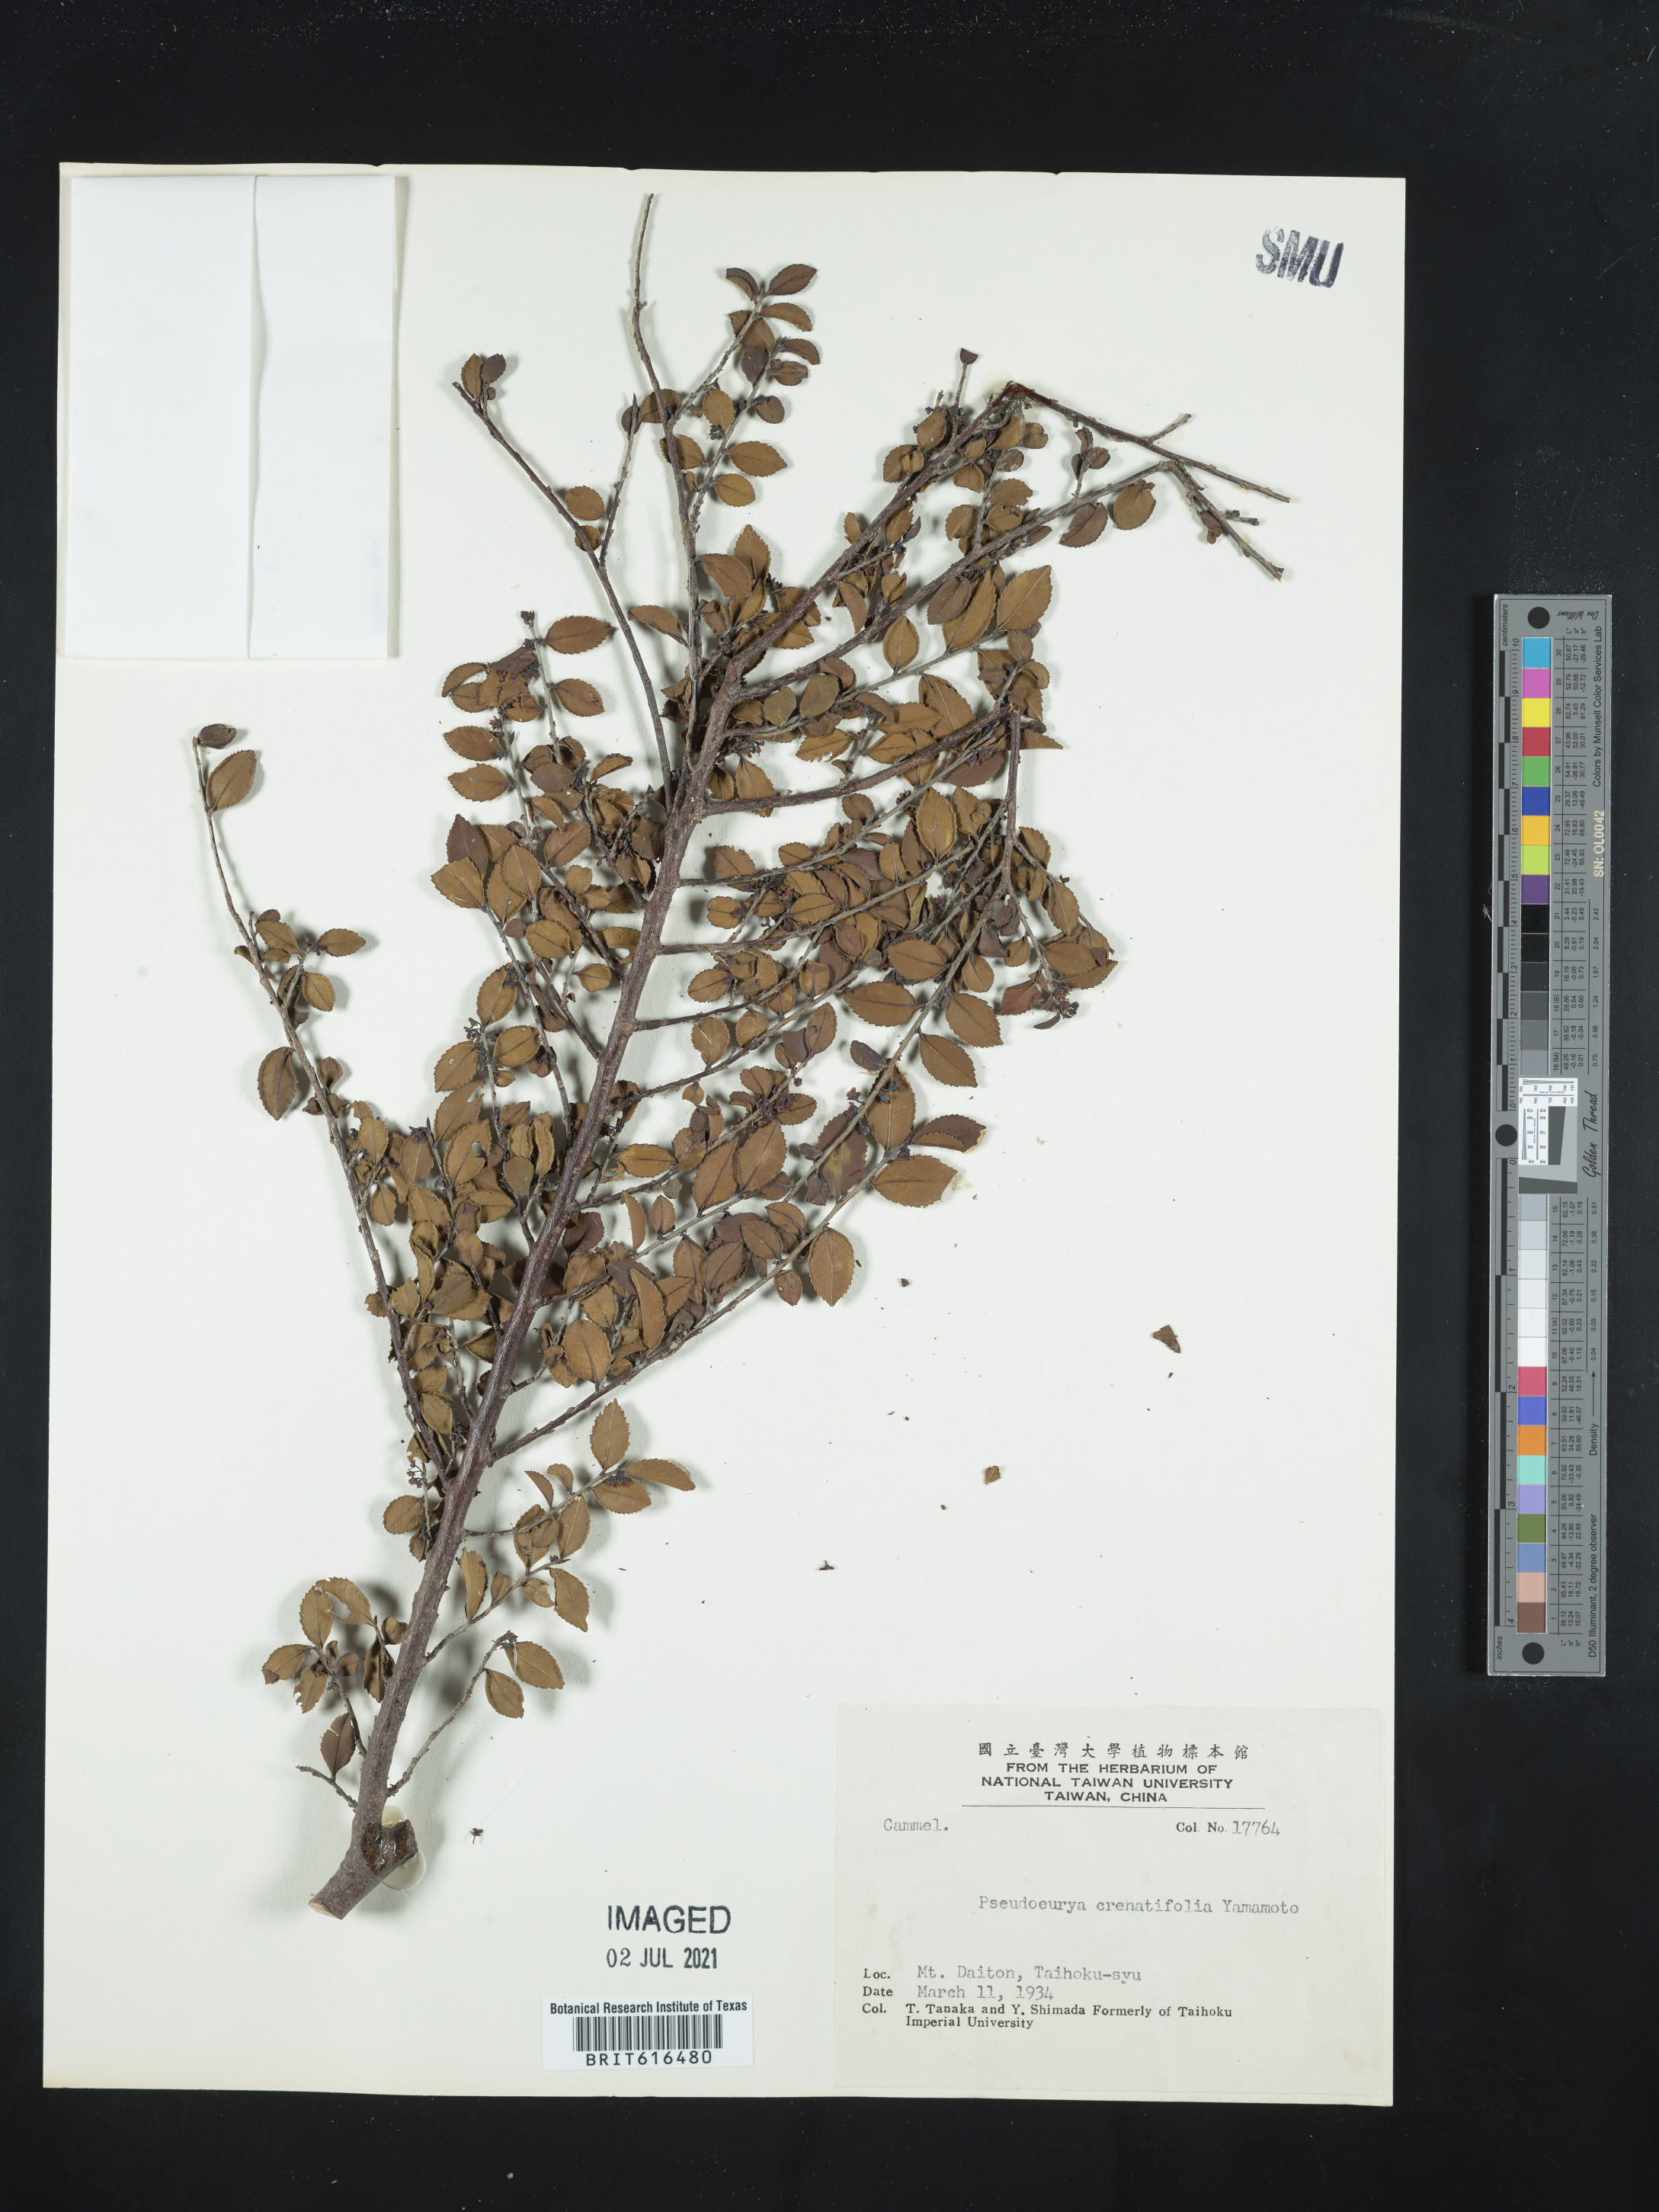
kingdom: Plantae
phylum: Tracheophyta
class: Magnoliopsida
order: Ericales
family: Pentaphylacaceae
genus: Eurya
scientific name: Eurya crenatifolia
